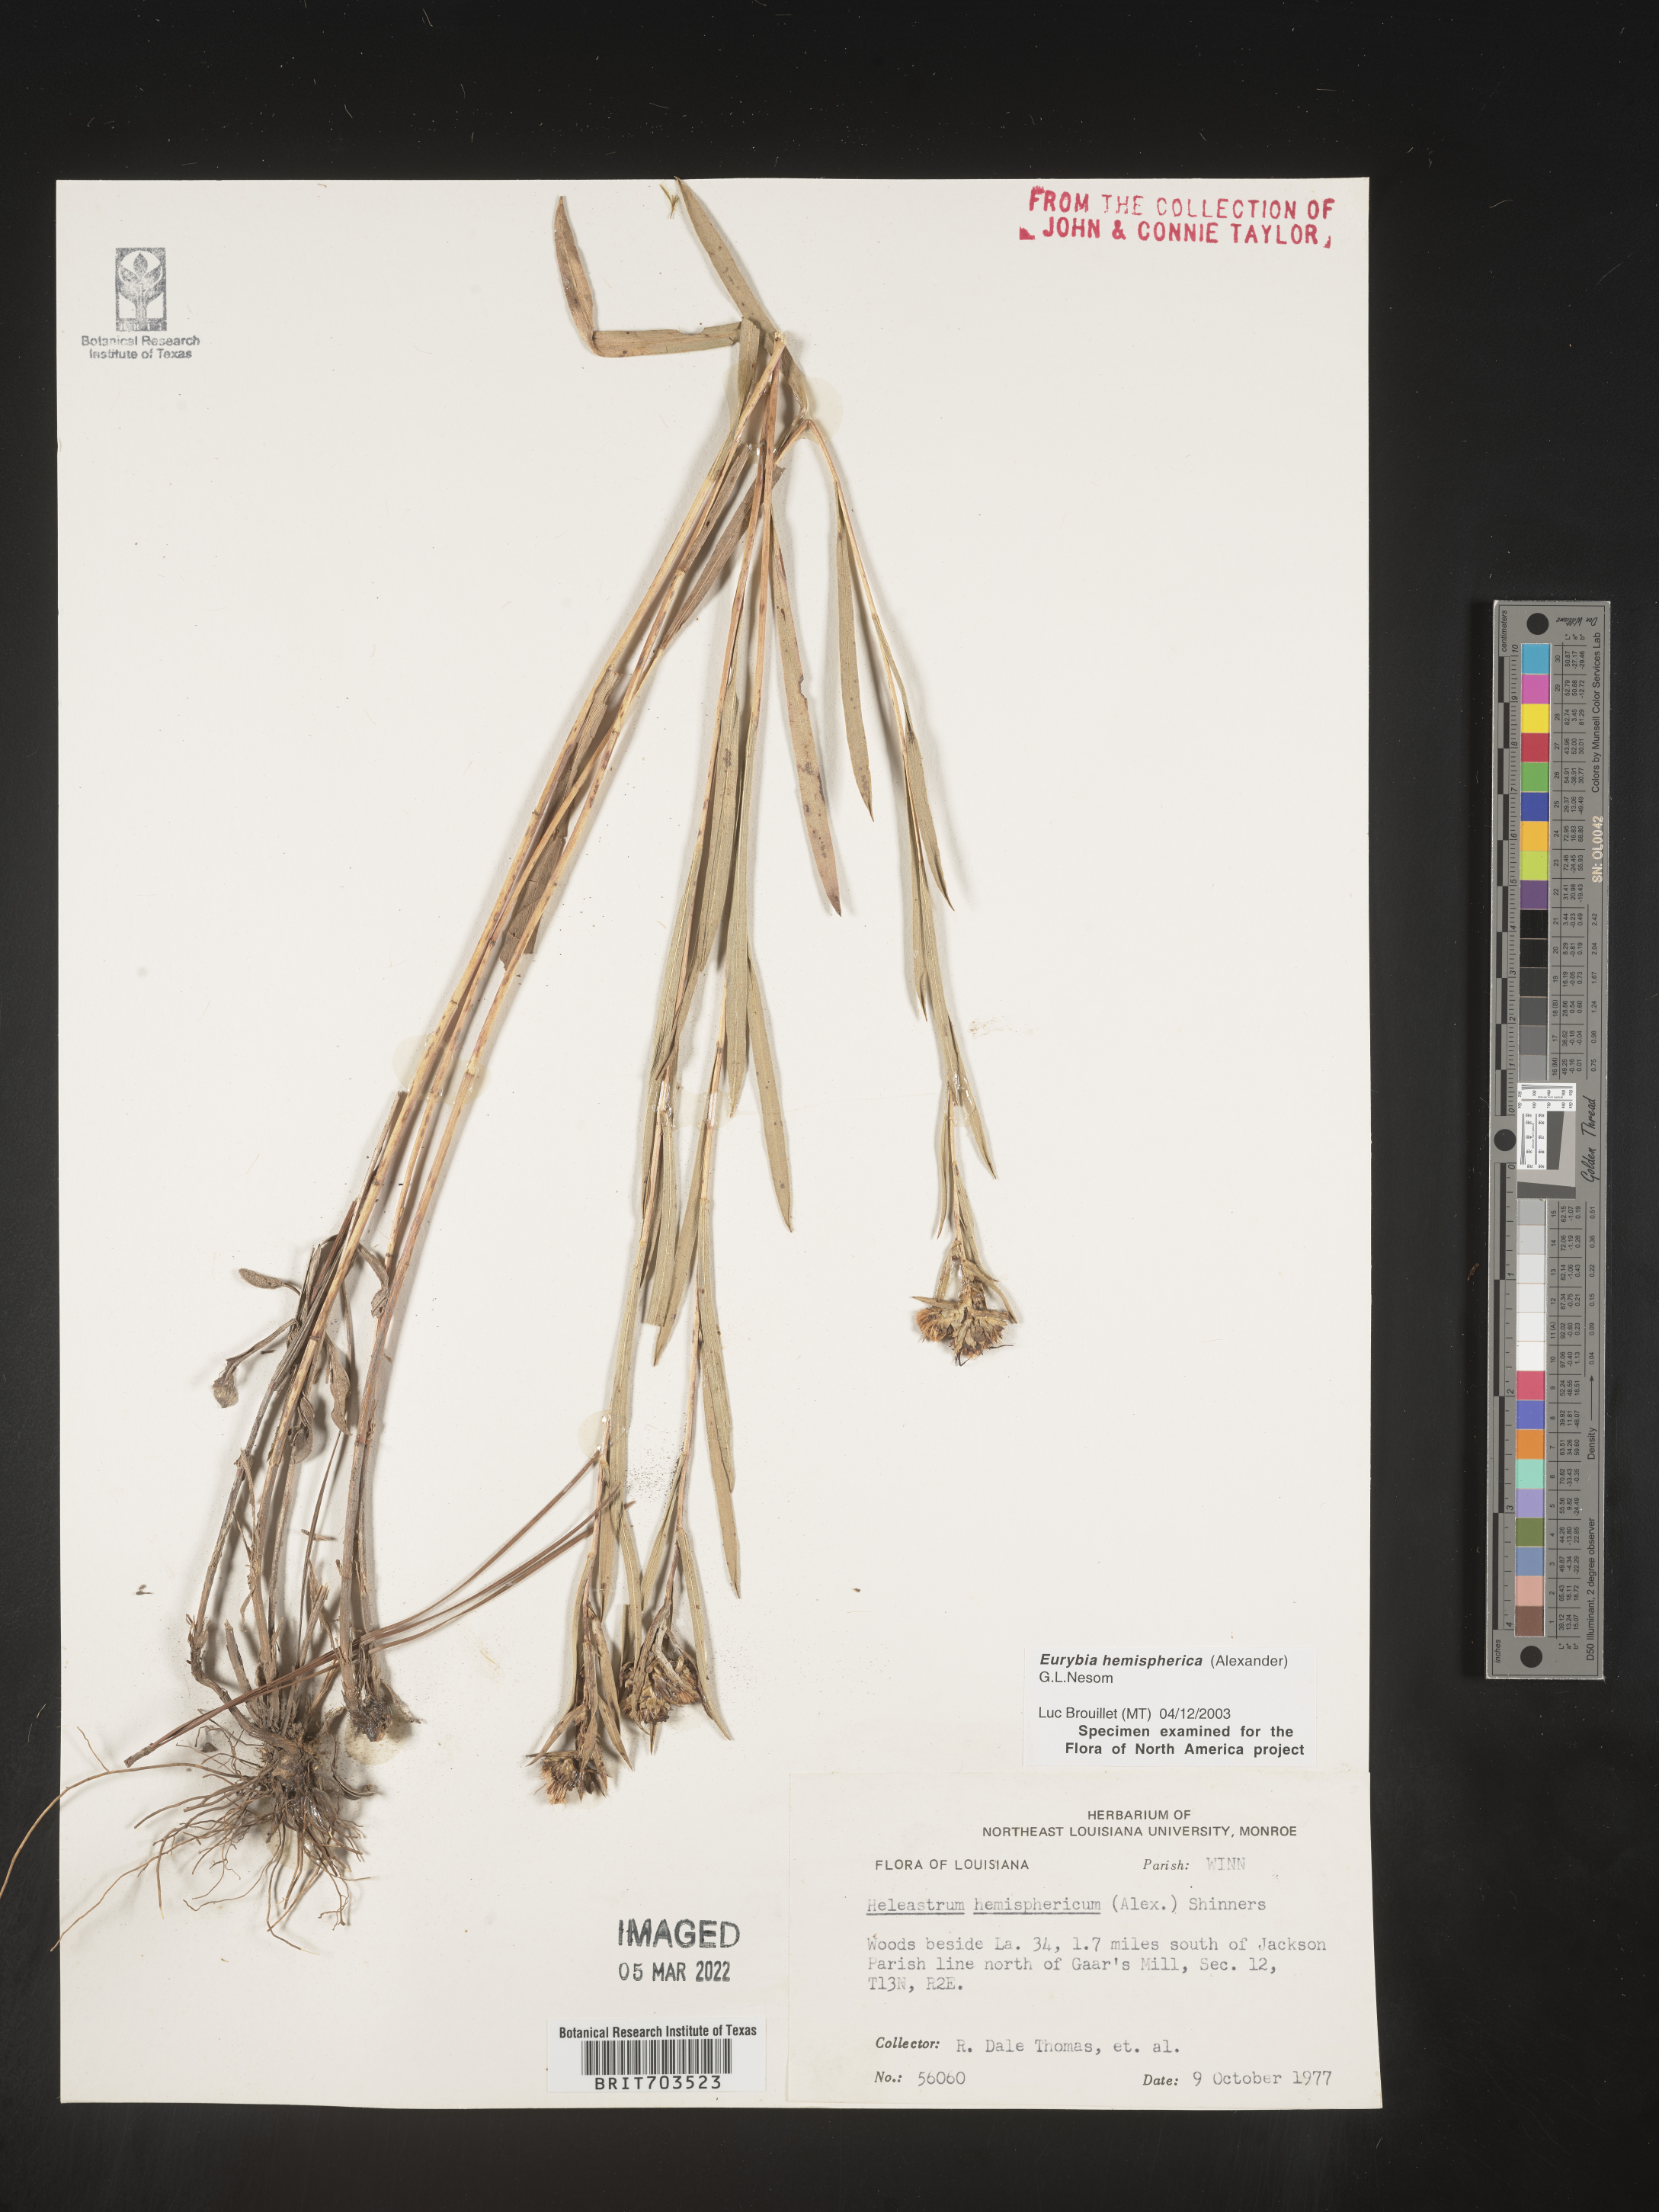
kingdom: Plantae
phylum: Tracheophyta
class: Magnoliopsida
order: Asterales
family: Asteraceae
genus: Eurybia
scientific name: Eurybia hemispherica
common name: Showy aster
